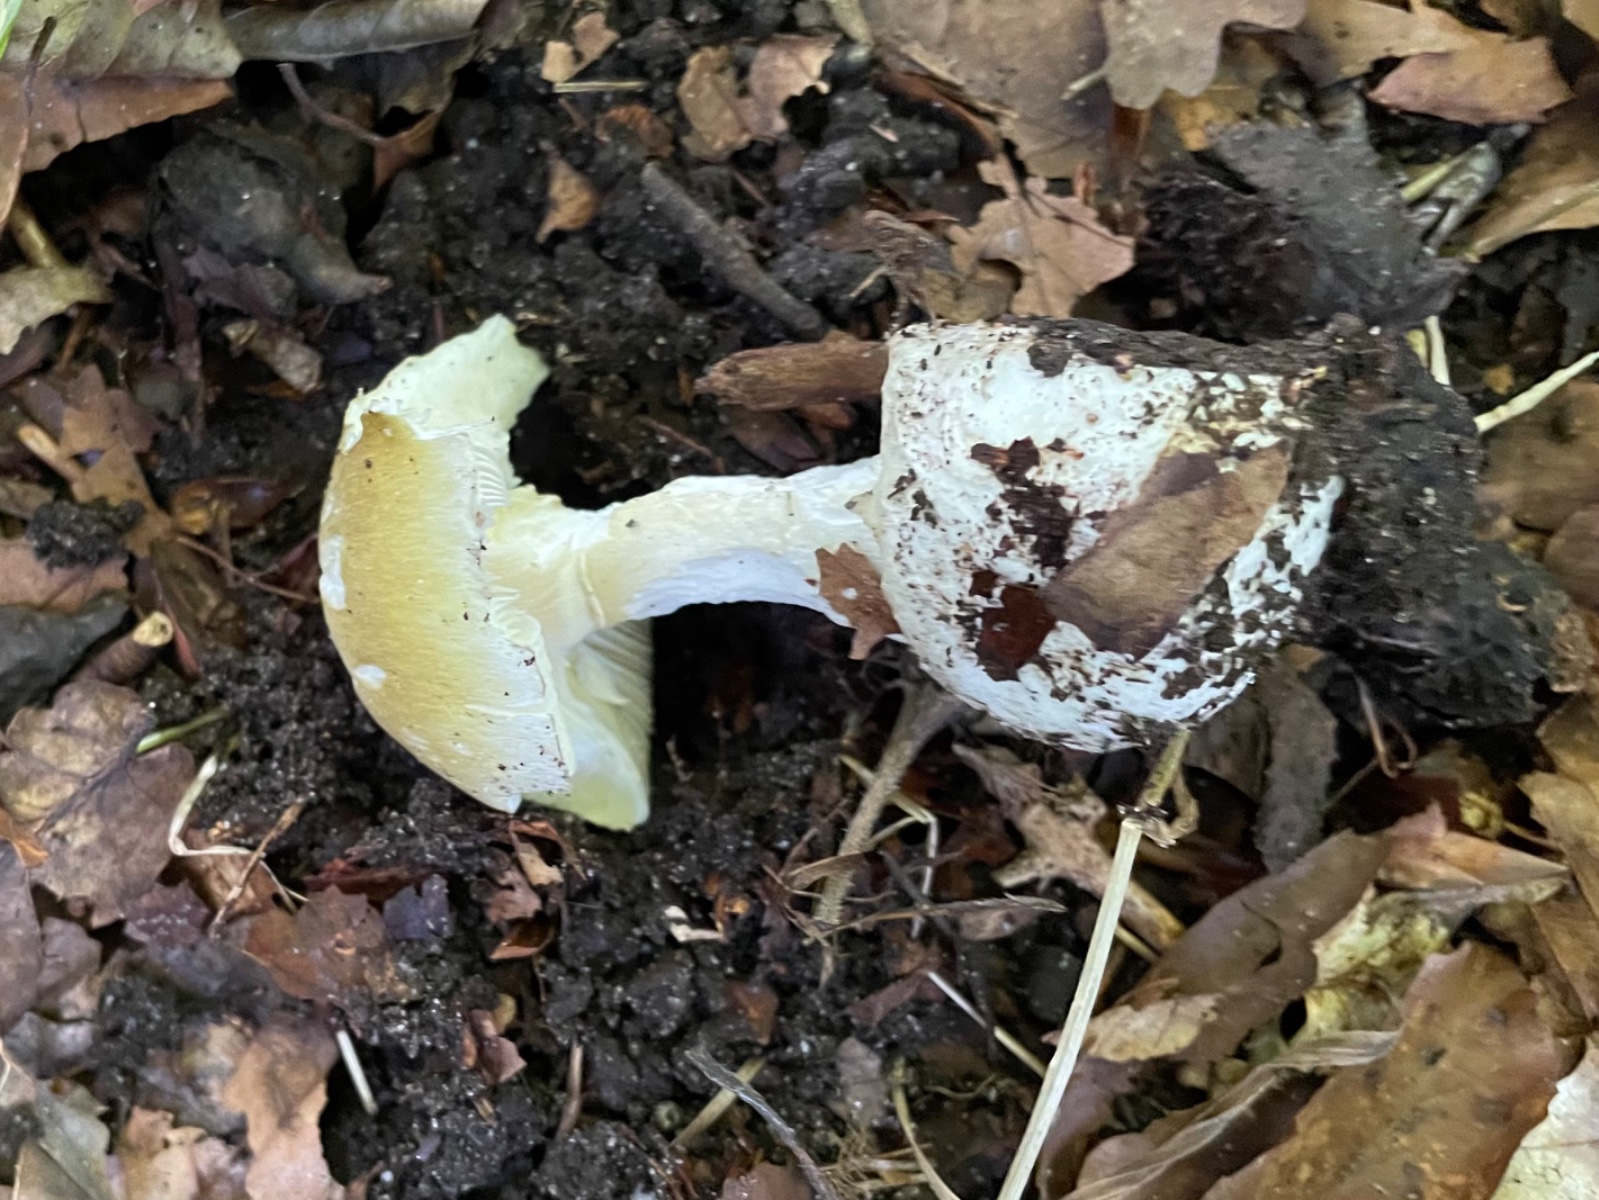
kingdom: Fungi
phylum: Basidiomycota
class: Agaricomycetes
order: Agaricales
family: Amanitaceae
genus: Amanita
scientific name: Amanita phalloides
